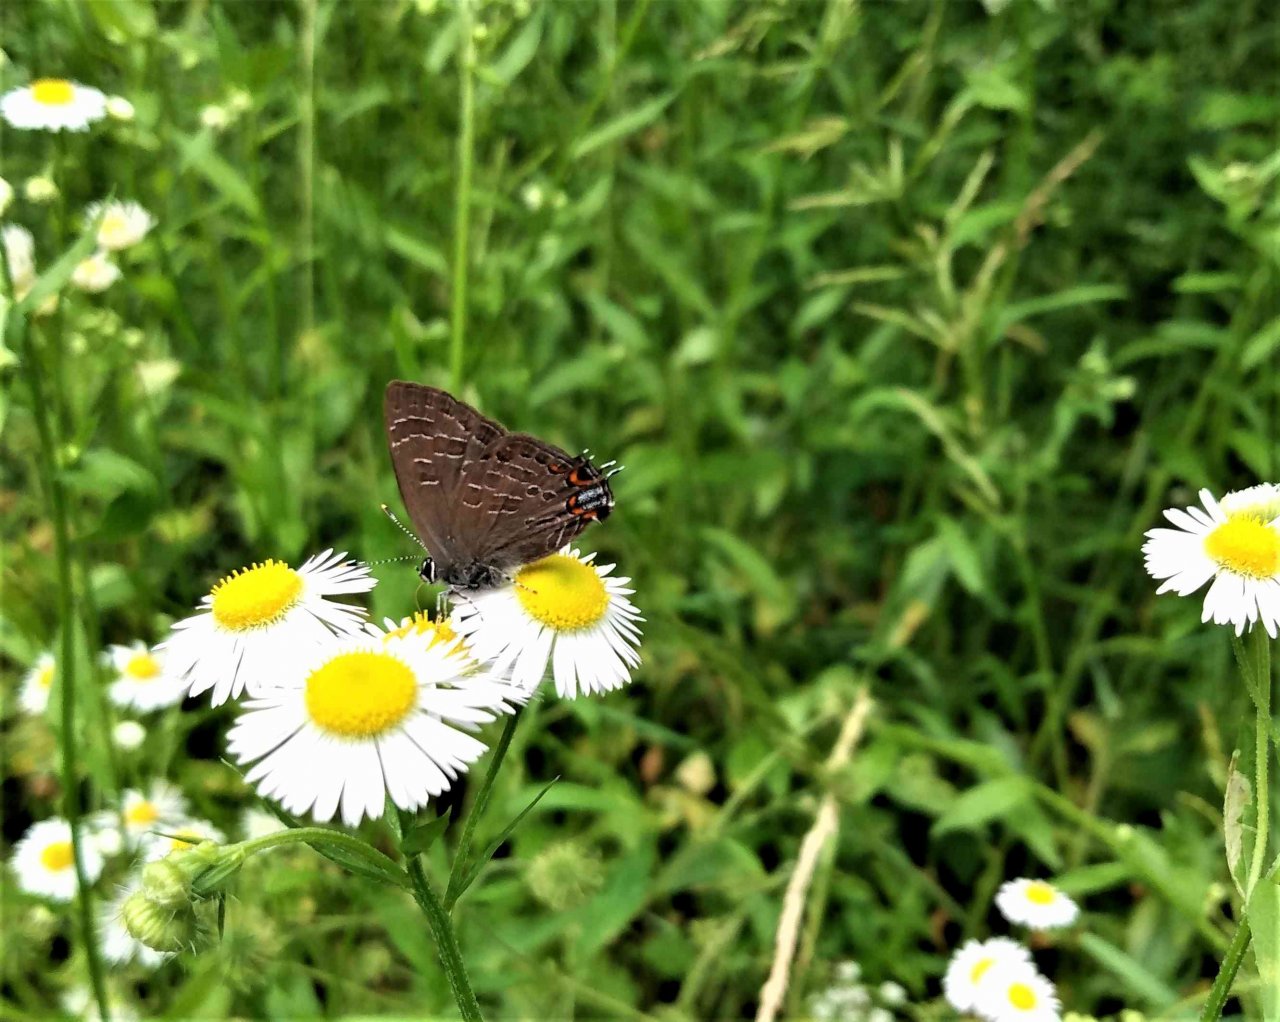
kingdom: Animalia
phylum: Arthropoda
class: Insecta
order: Lepidoptera
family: Lycaenidae
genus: Satyrium
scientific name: Satyrium liparops
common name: Striped Hairstreak
